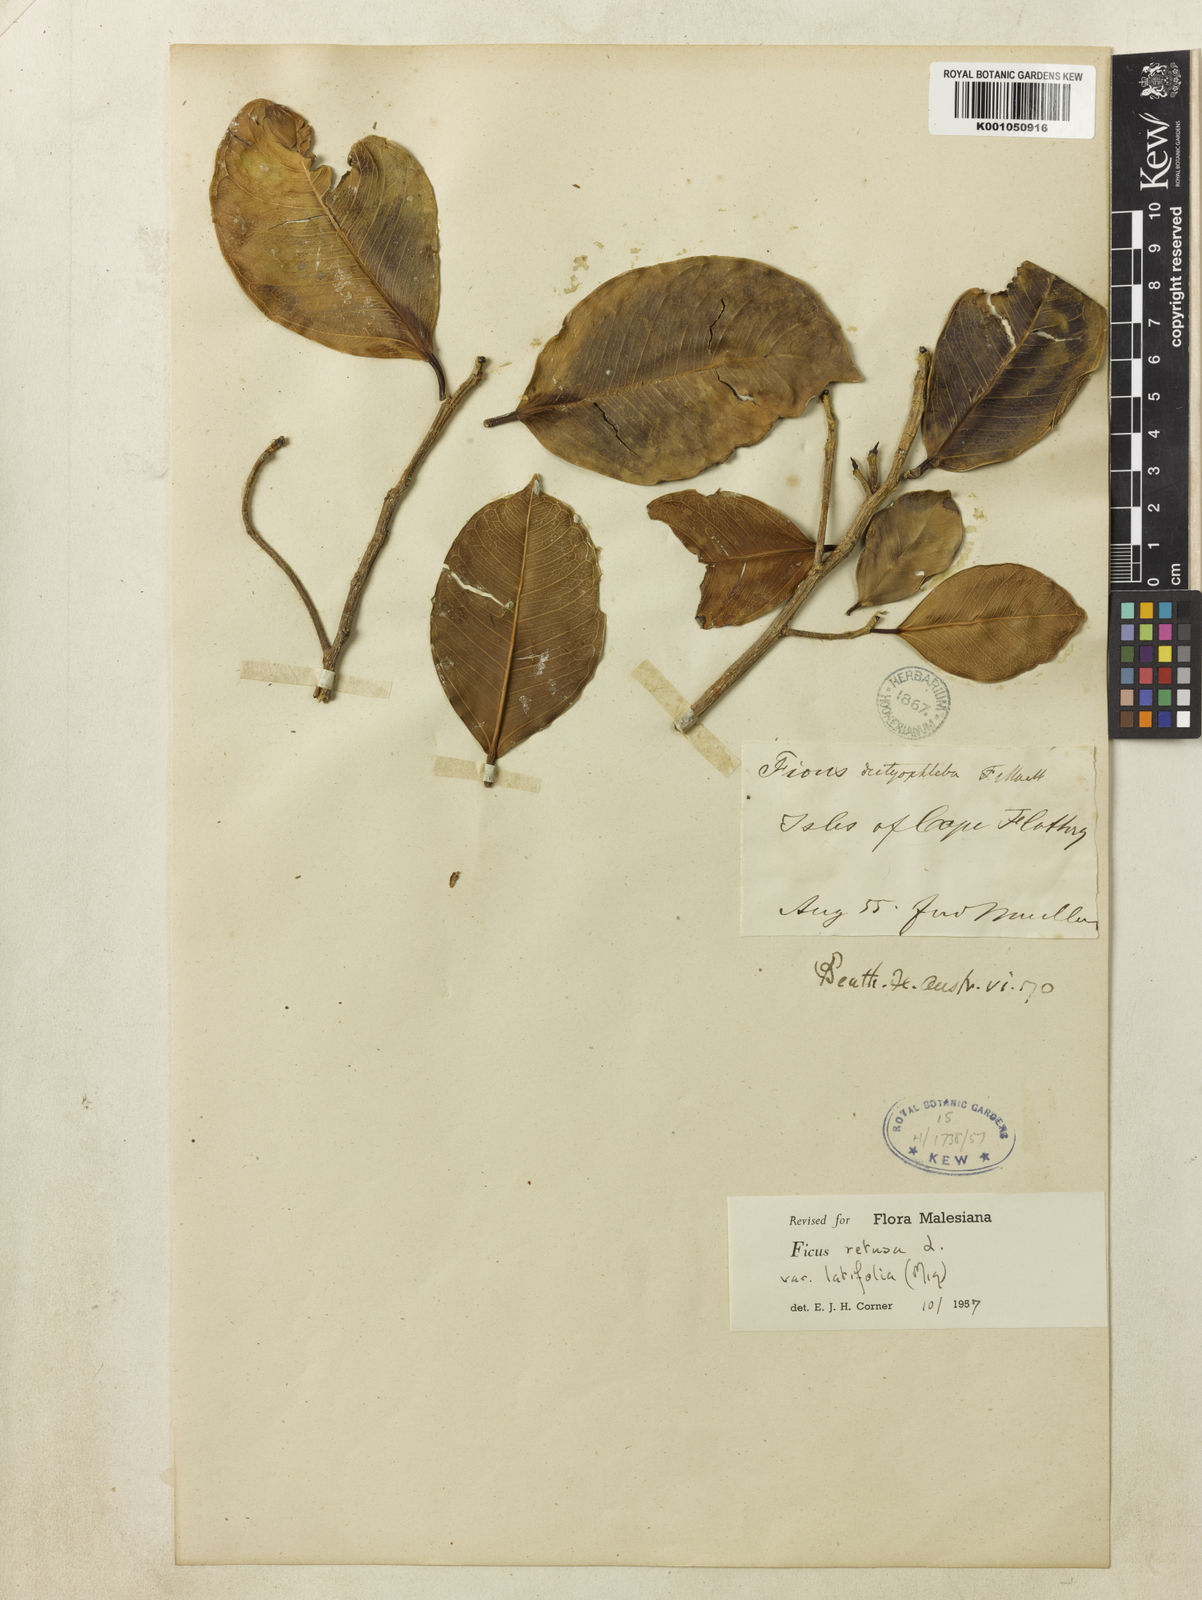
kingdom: Plantae
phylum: Tracheophyta
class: Magnoliopsida
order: Rosales
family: Moraceae
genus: Ficus
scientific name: Ficus microcarpa
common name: Chinese banyan
